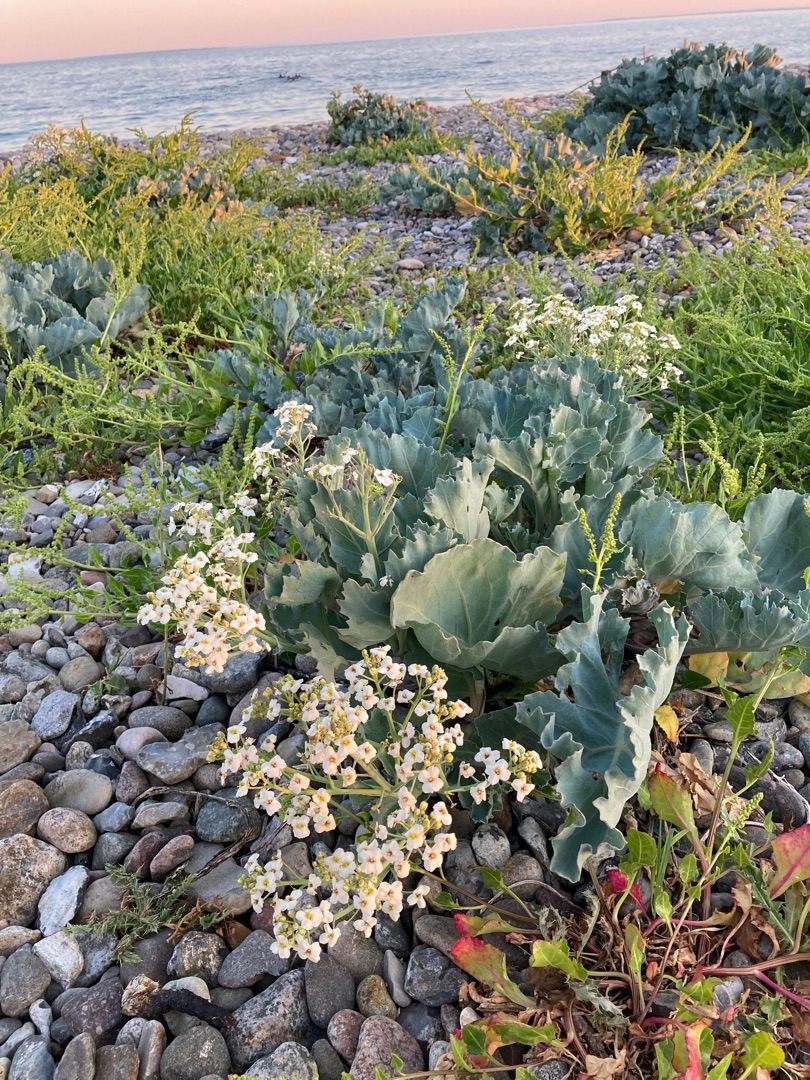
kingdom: Plantae
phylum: Tracheophyta
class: Magnoliopsida
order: Brassicales
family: Brassicaceae
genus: Crambe
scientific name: Crambe maritima
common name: Strandkål
